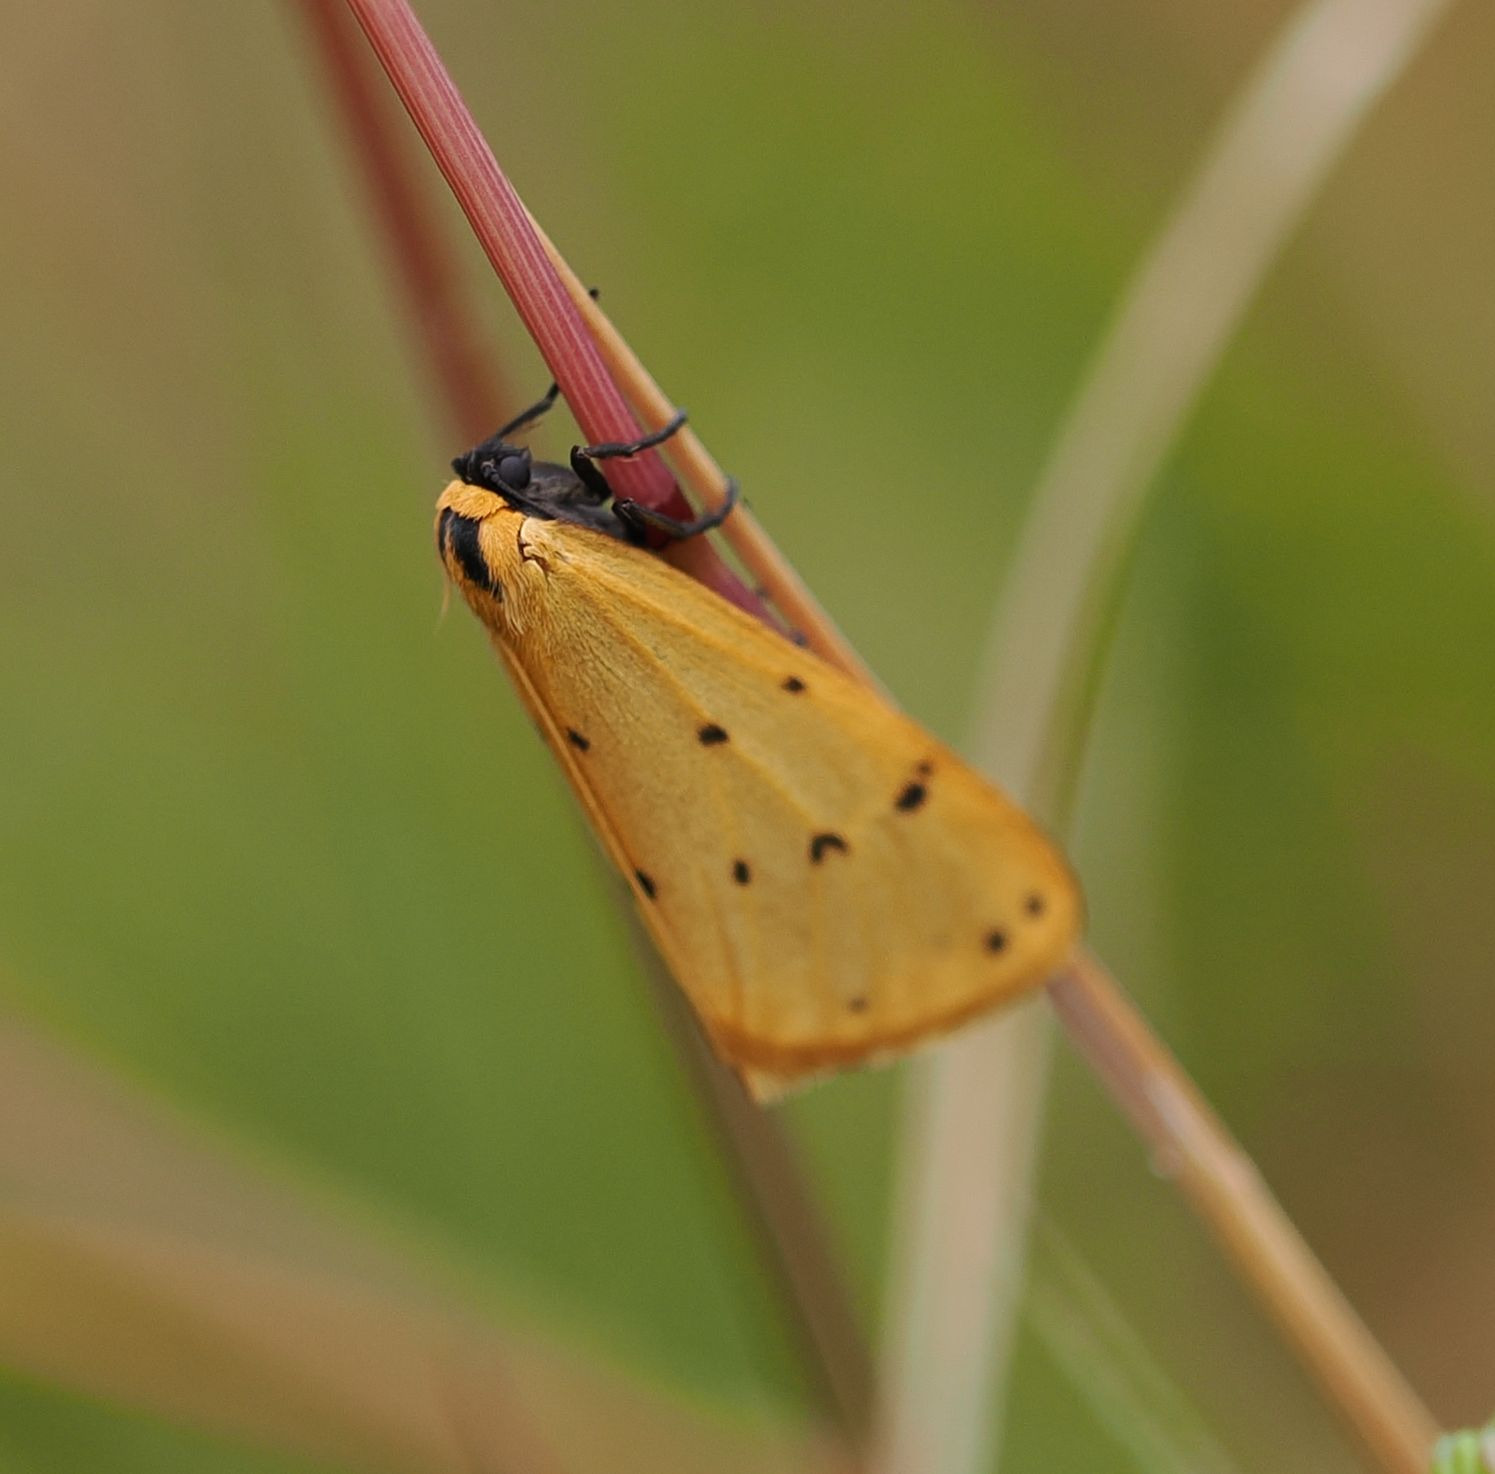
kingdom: Animalia
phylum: Arthropoda
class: Insecta
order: Lepidoptera
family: Erebidae
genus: Setina
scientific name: Setina irrorella
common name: Citronbjørn
